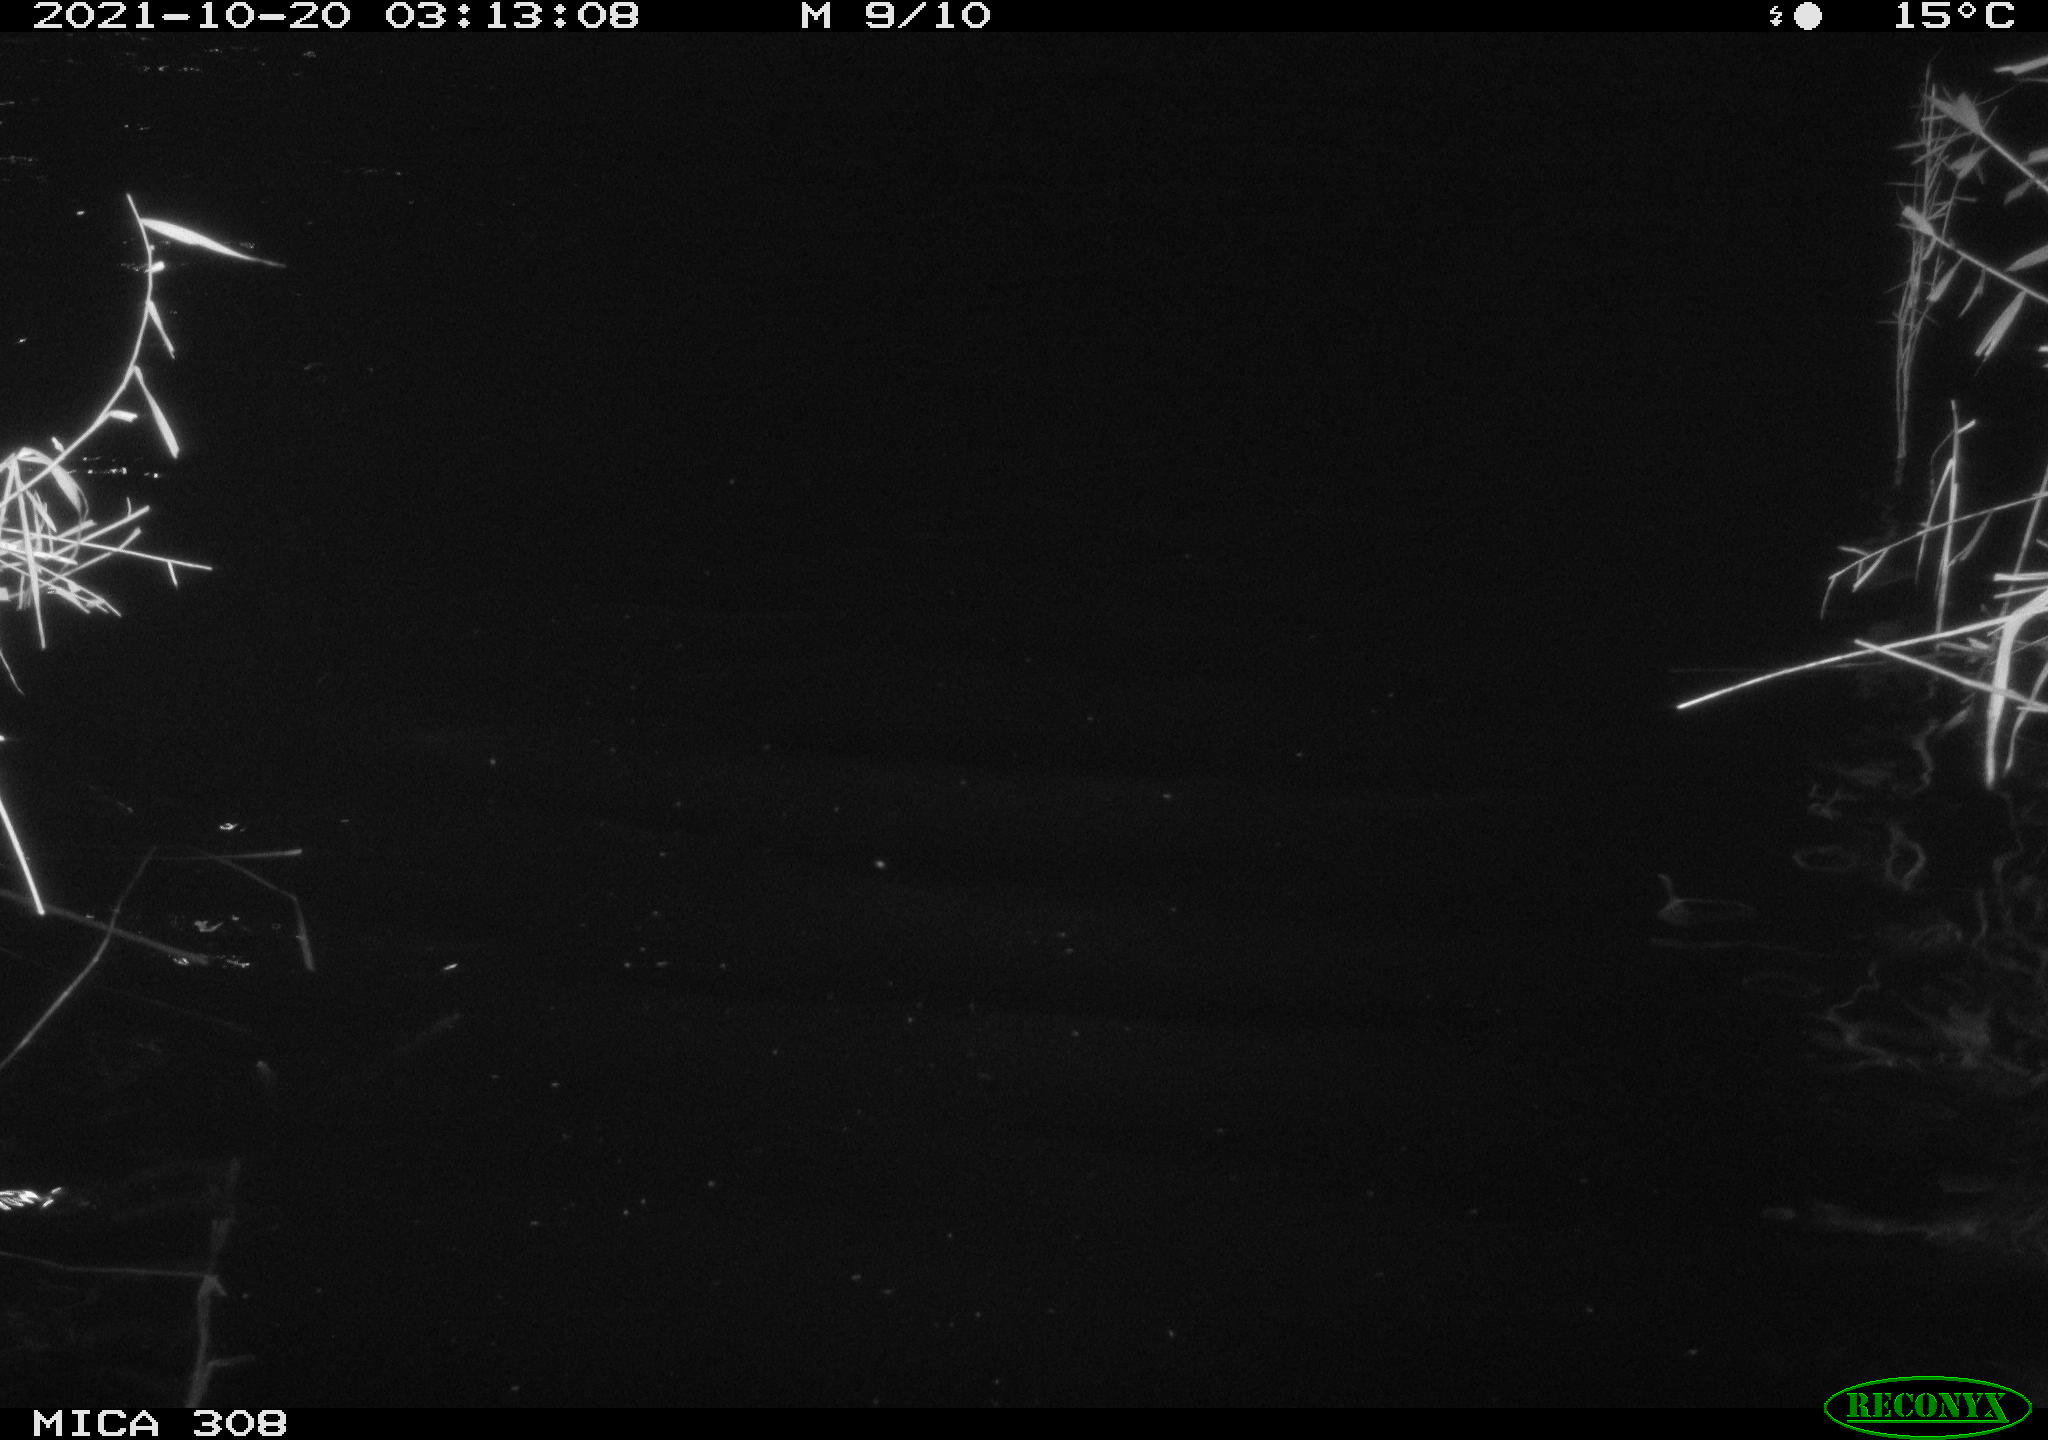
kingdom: Animalia
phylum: Chordata
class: Mammalia
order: Rodentia
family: Muridae
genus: Rattus
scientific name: Rattus norvegicus
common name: Brown rat
